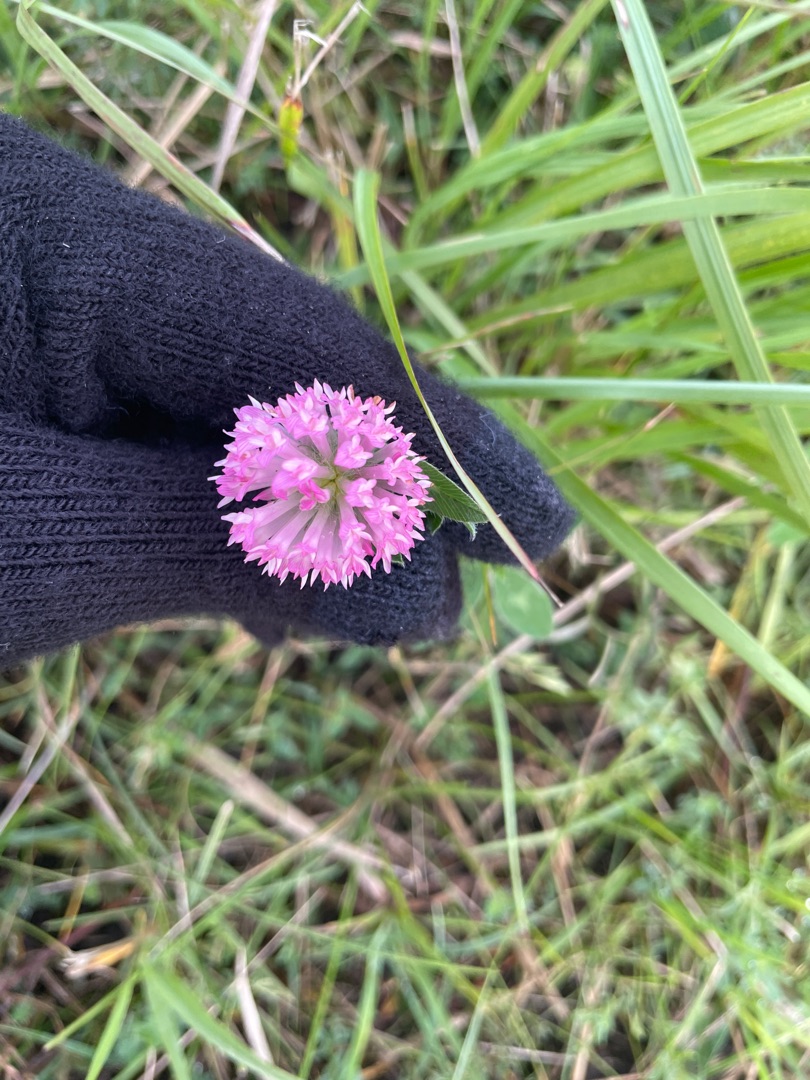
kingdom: Plantae
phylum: Tracheophyta
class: Magnoliopsida
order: Fabales
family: Fabaceae
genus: Trifolium
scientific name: Trifolium pratense
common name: Rød-kløver
